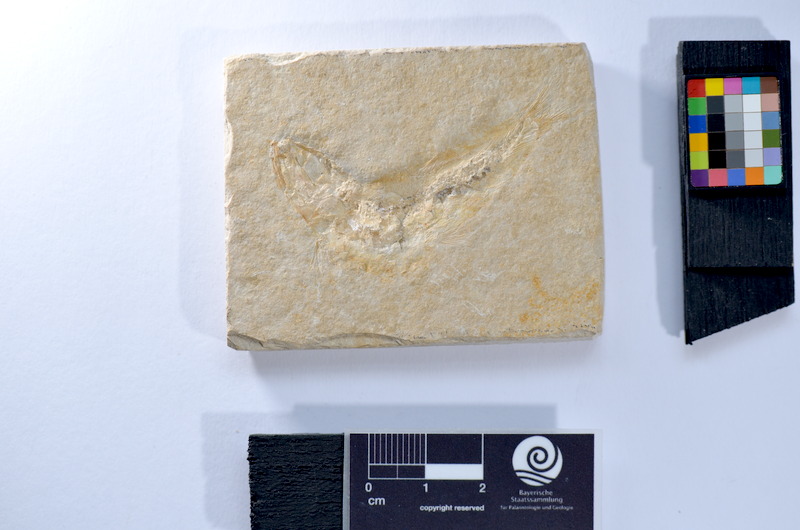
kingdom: Animalia
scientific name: Animalia
